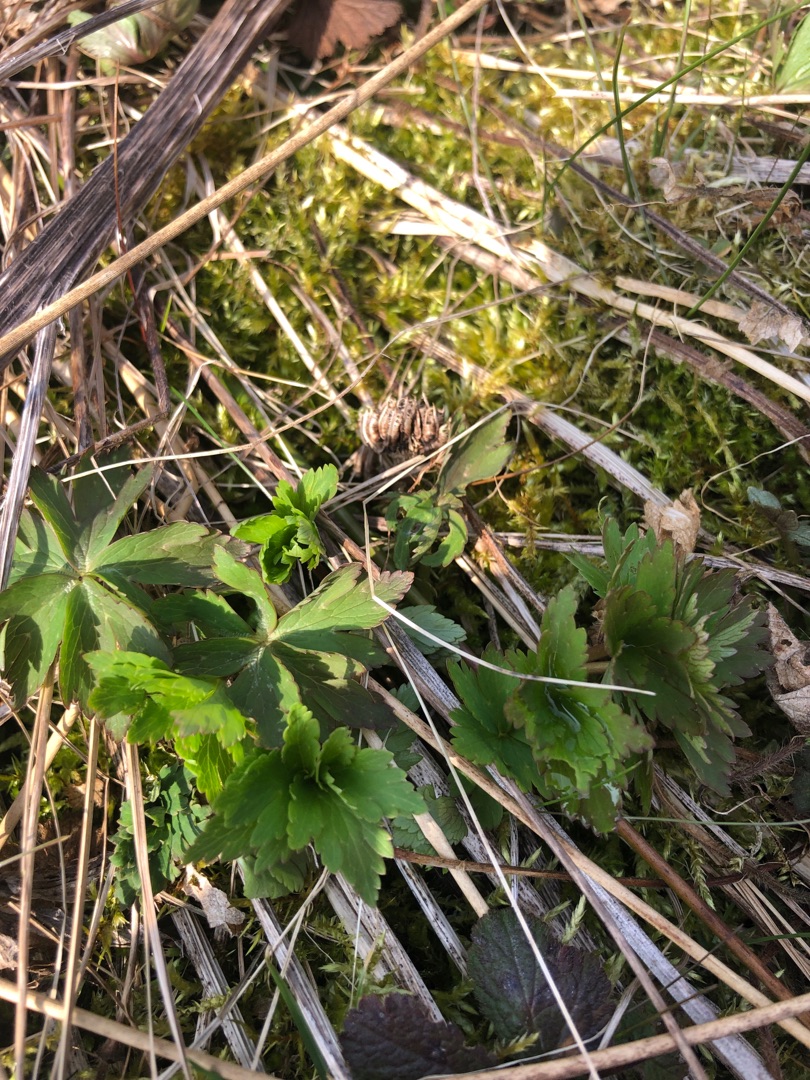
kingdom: Plantae
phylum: Tracheophyta
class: Magnoliopsida
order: Ranunculales
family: Ranunculaceae
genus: Trollius
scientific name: Trollius europaeus
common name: Engblomme
